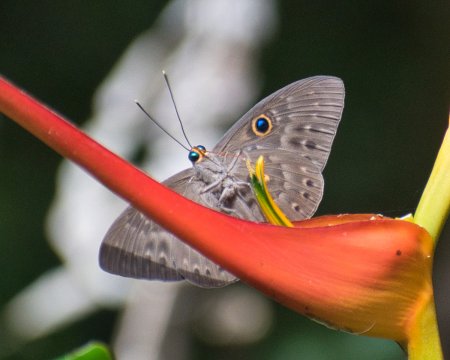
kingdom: Animalia
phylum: Cnidaria
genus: Eurybia
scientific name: Eurybia patrona
